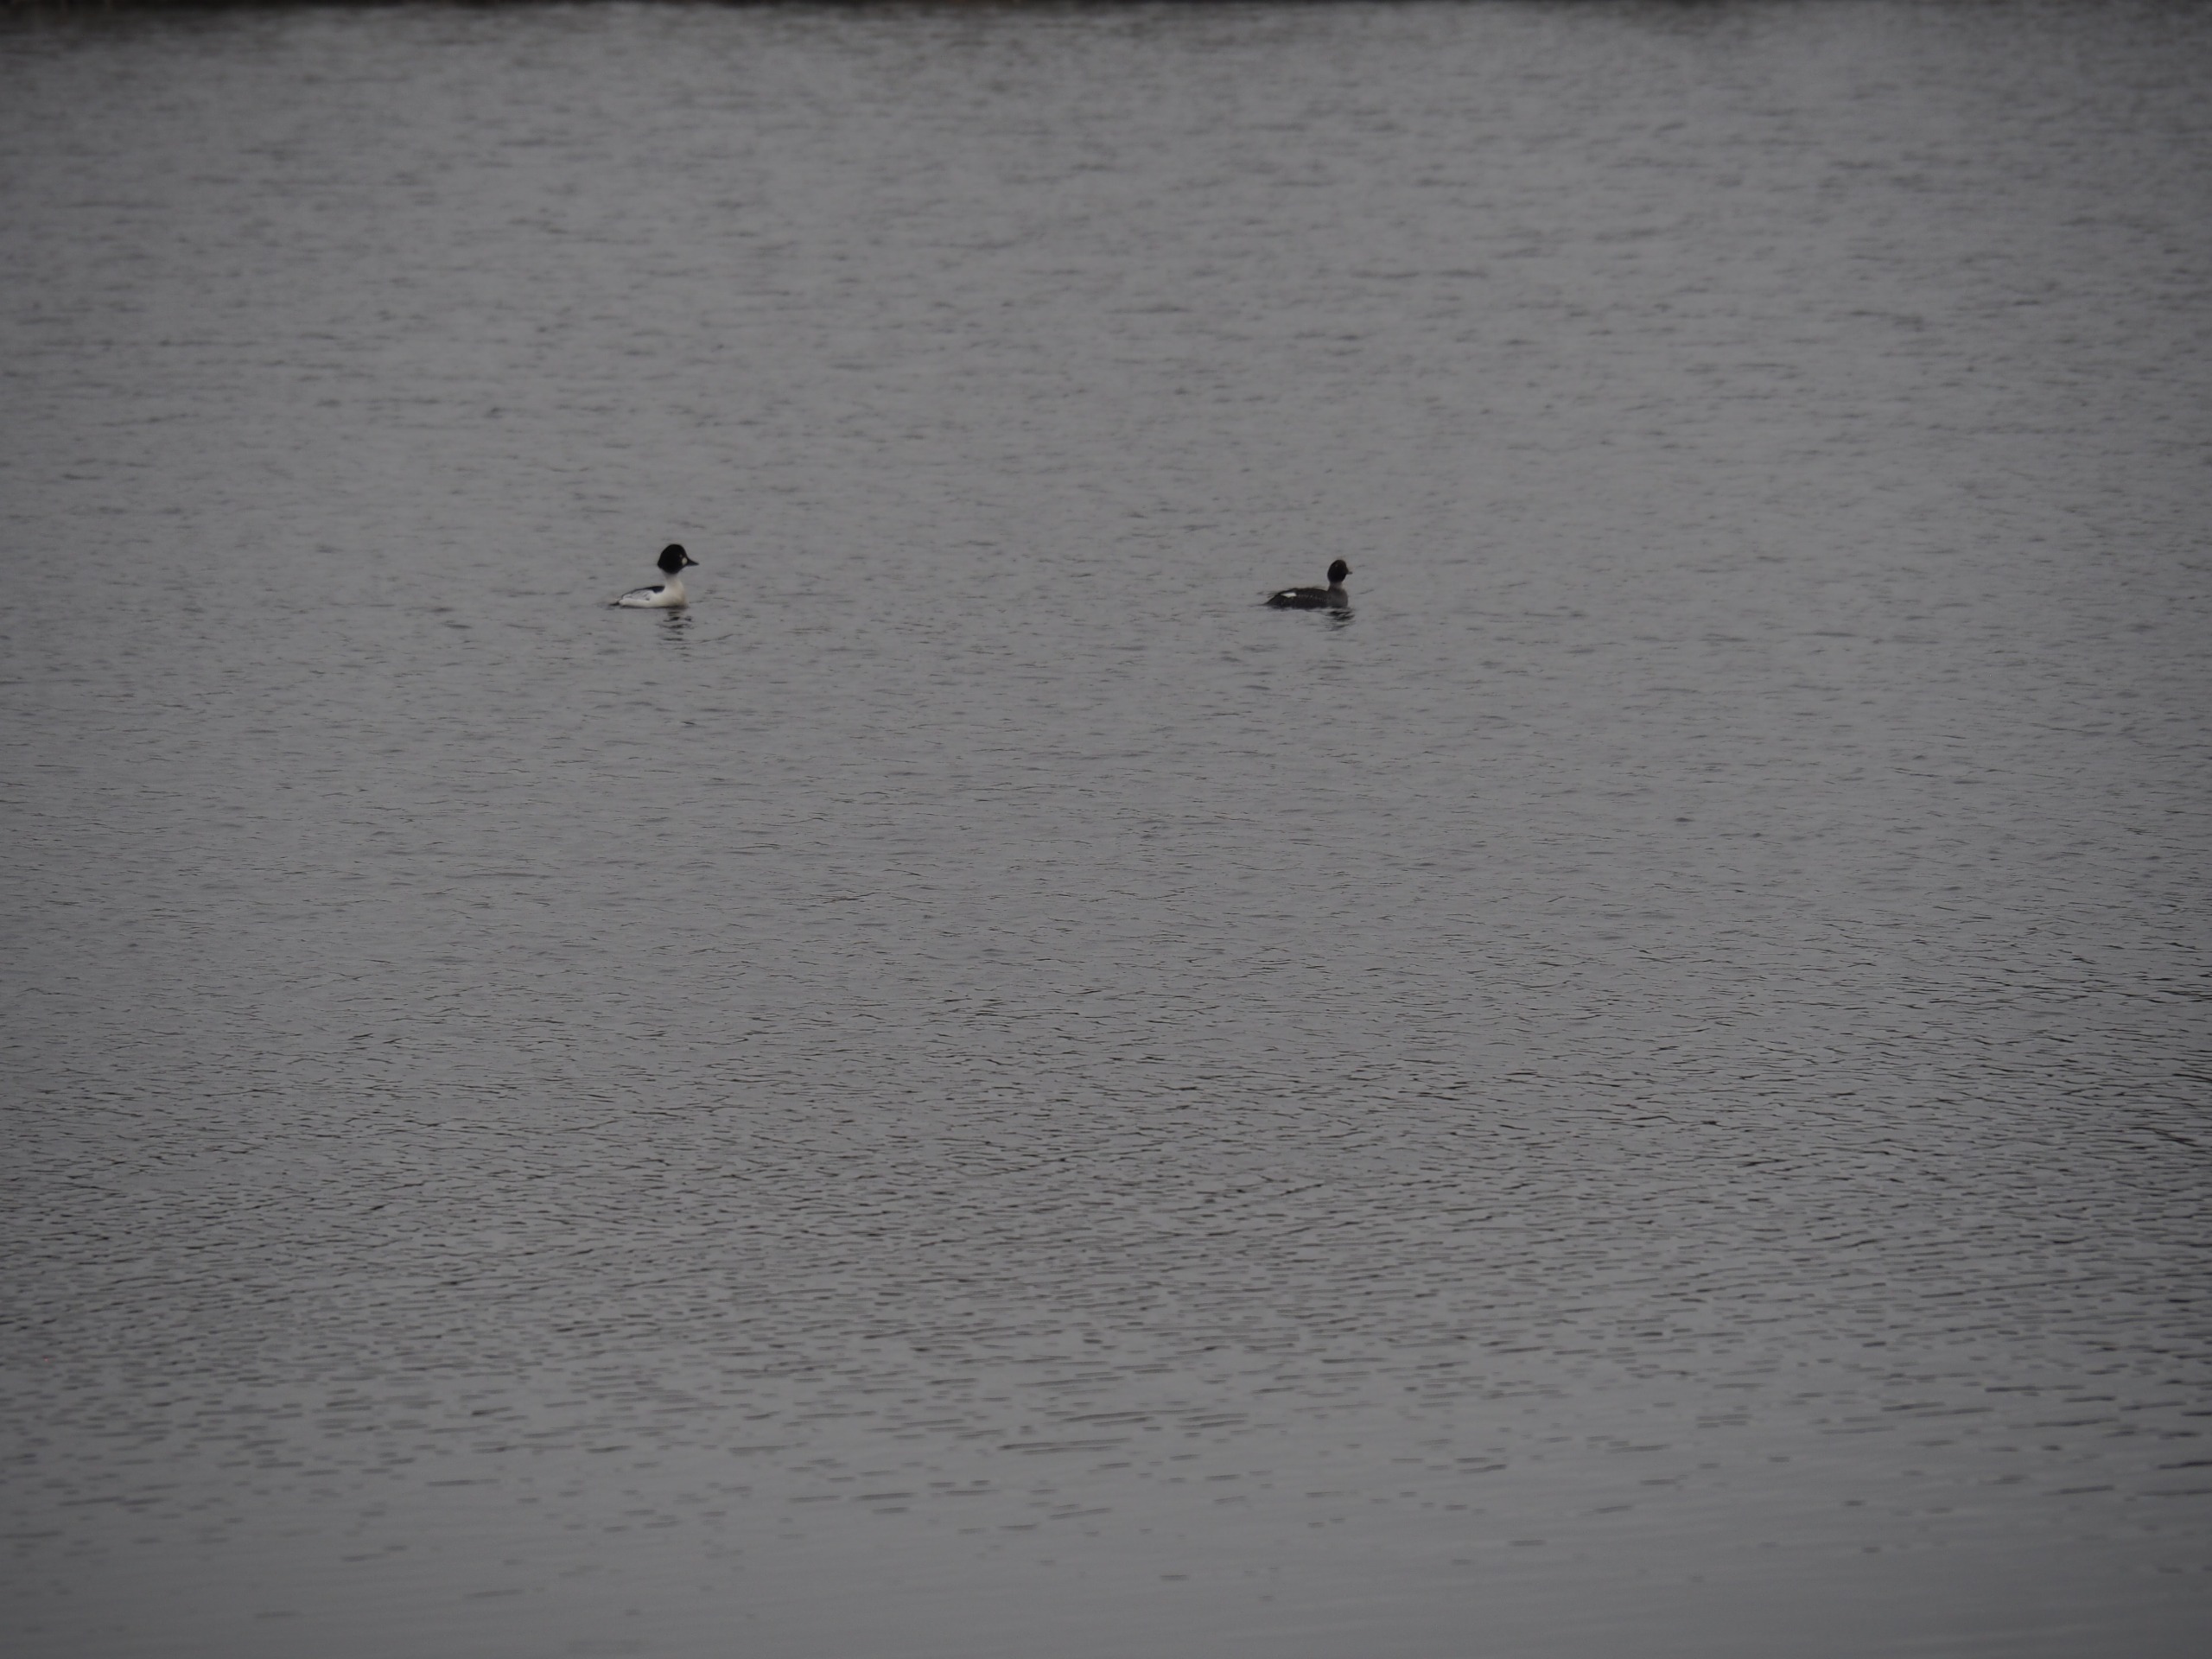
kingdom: Animalia
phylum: Chordata
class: Aves
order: Anseriformes
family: Anatidae
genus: Bucephala
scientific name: Bucephala clangula
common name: Hvinand
